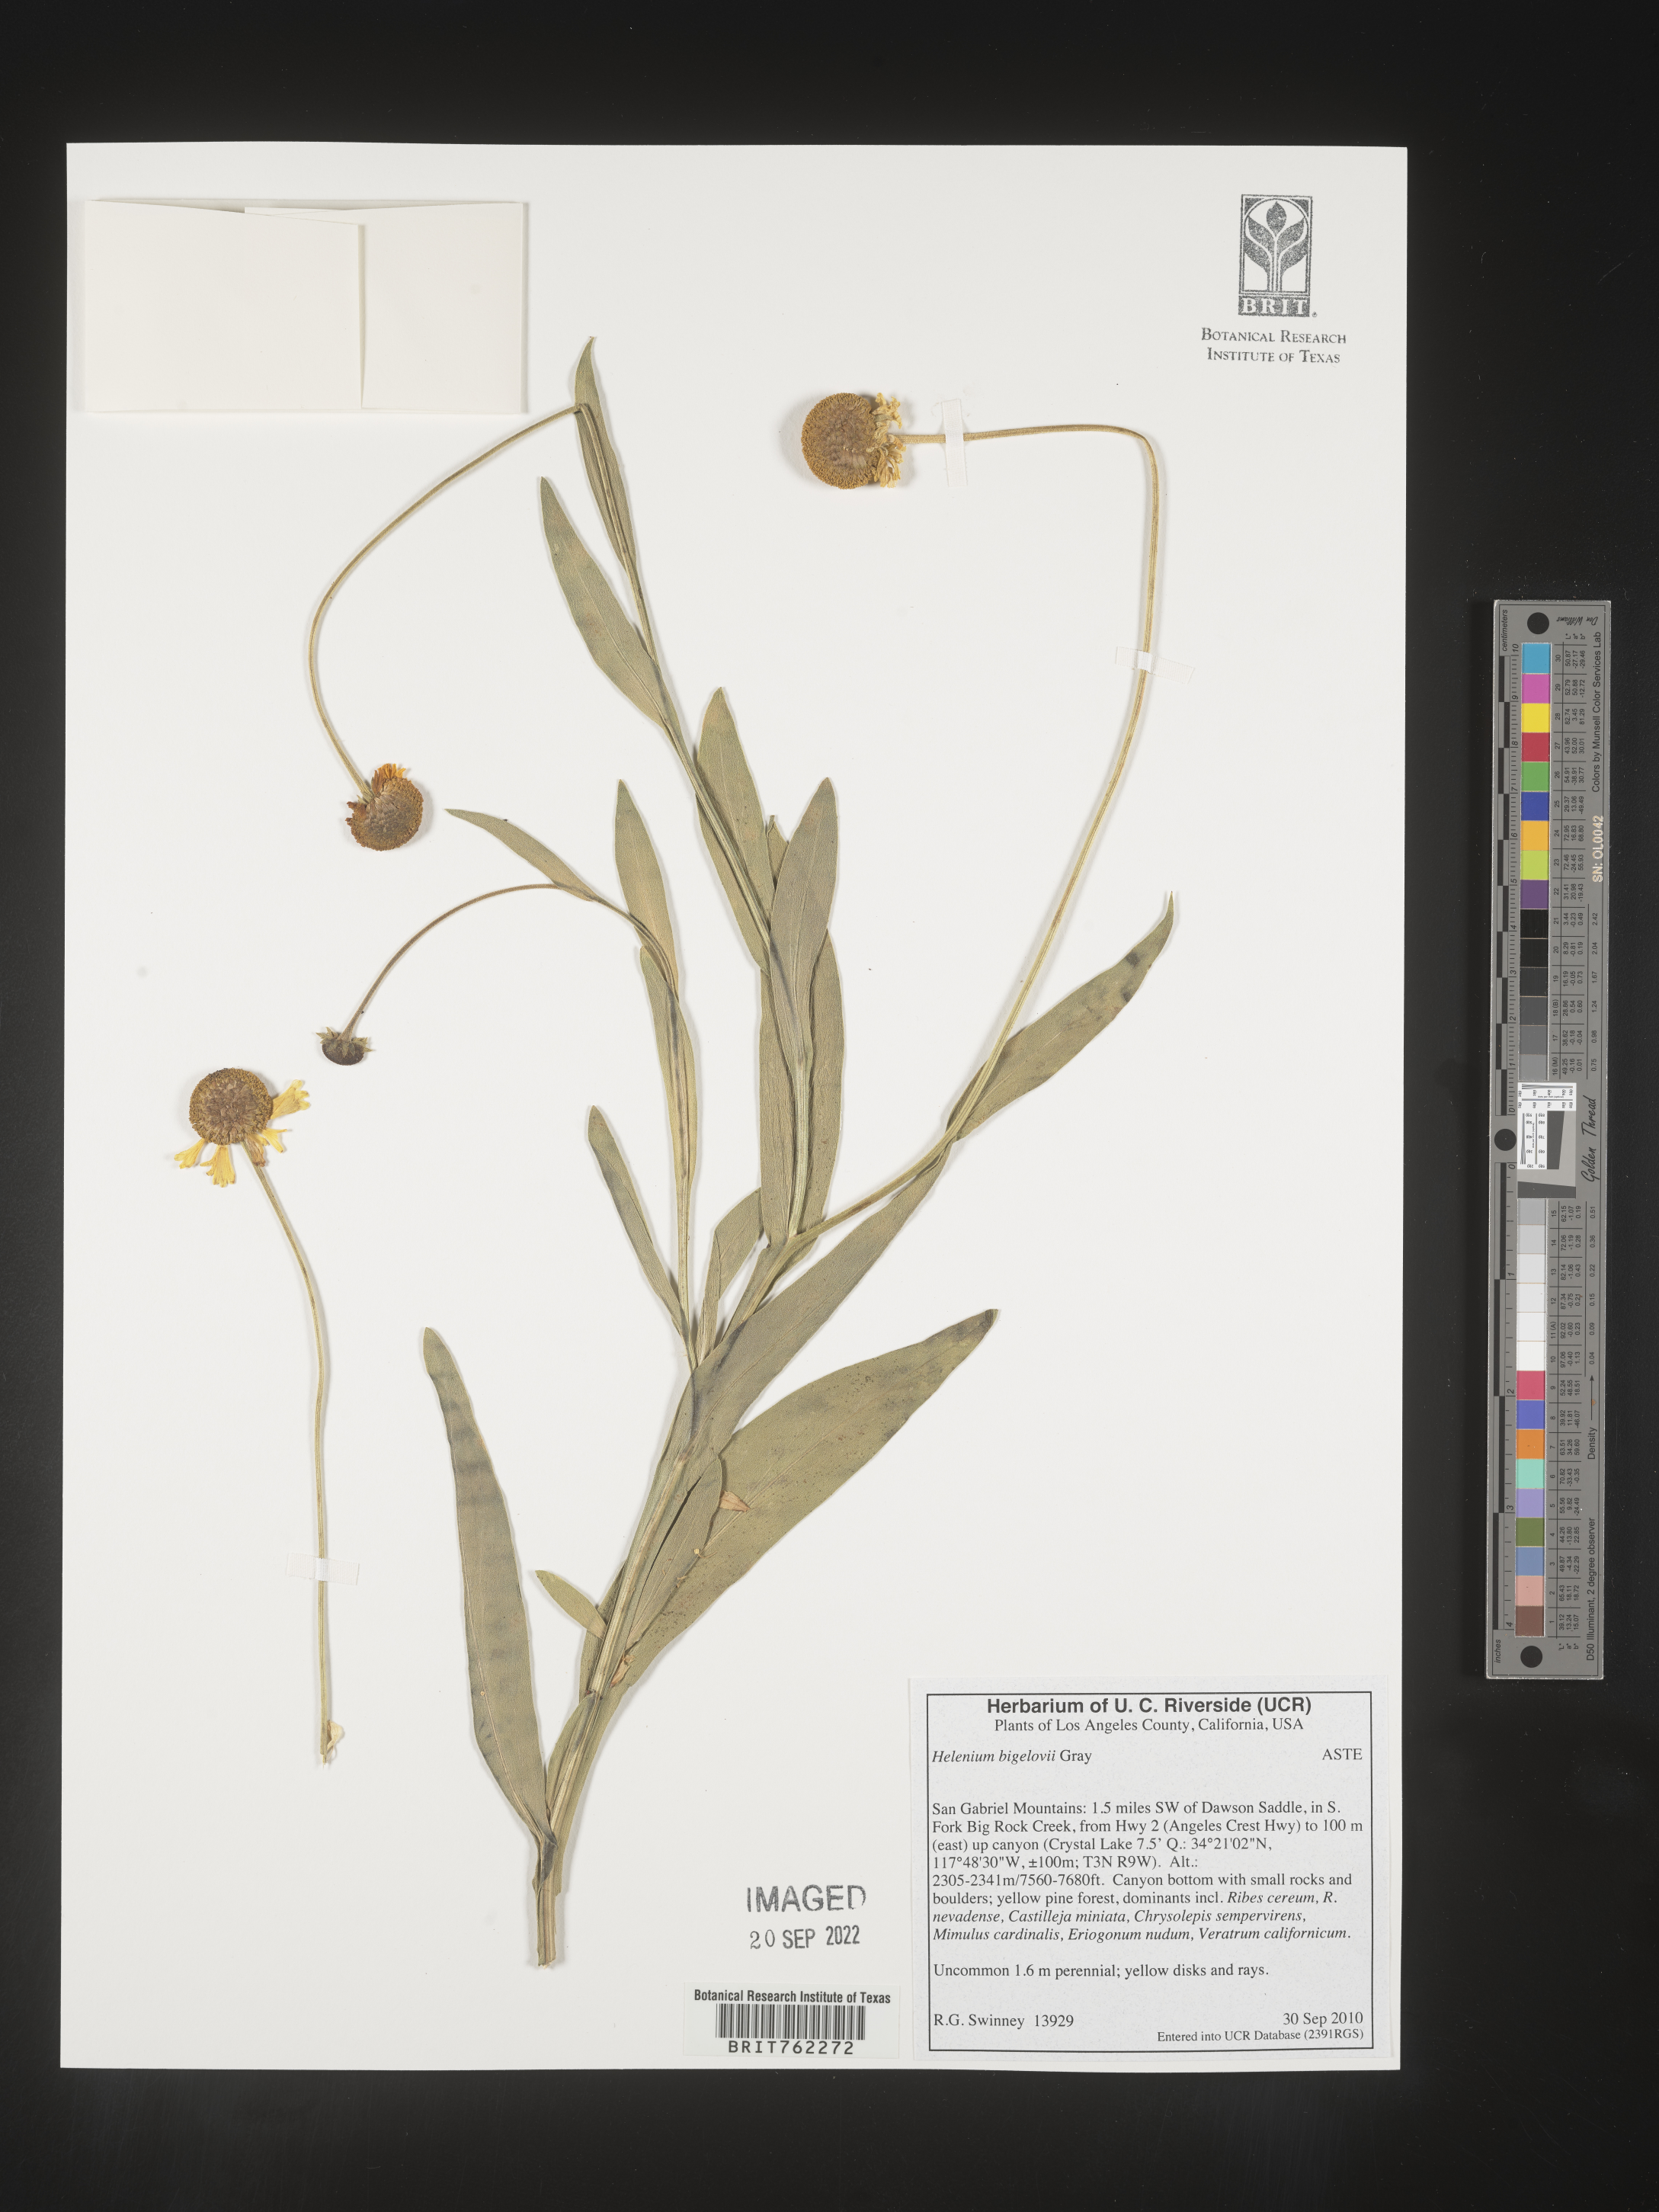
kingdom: Plantae
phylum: Tracheophyta
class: Magnoliopsida
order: Asterales
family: Asteraceae
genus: Helenium
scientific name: Helenium
